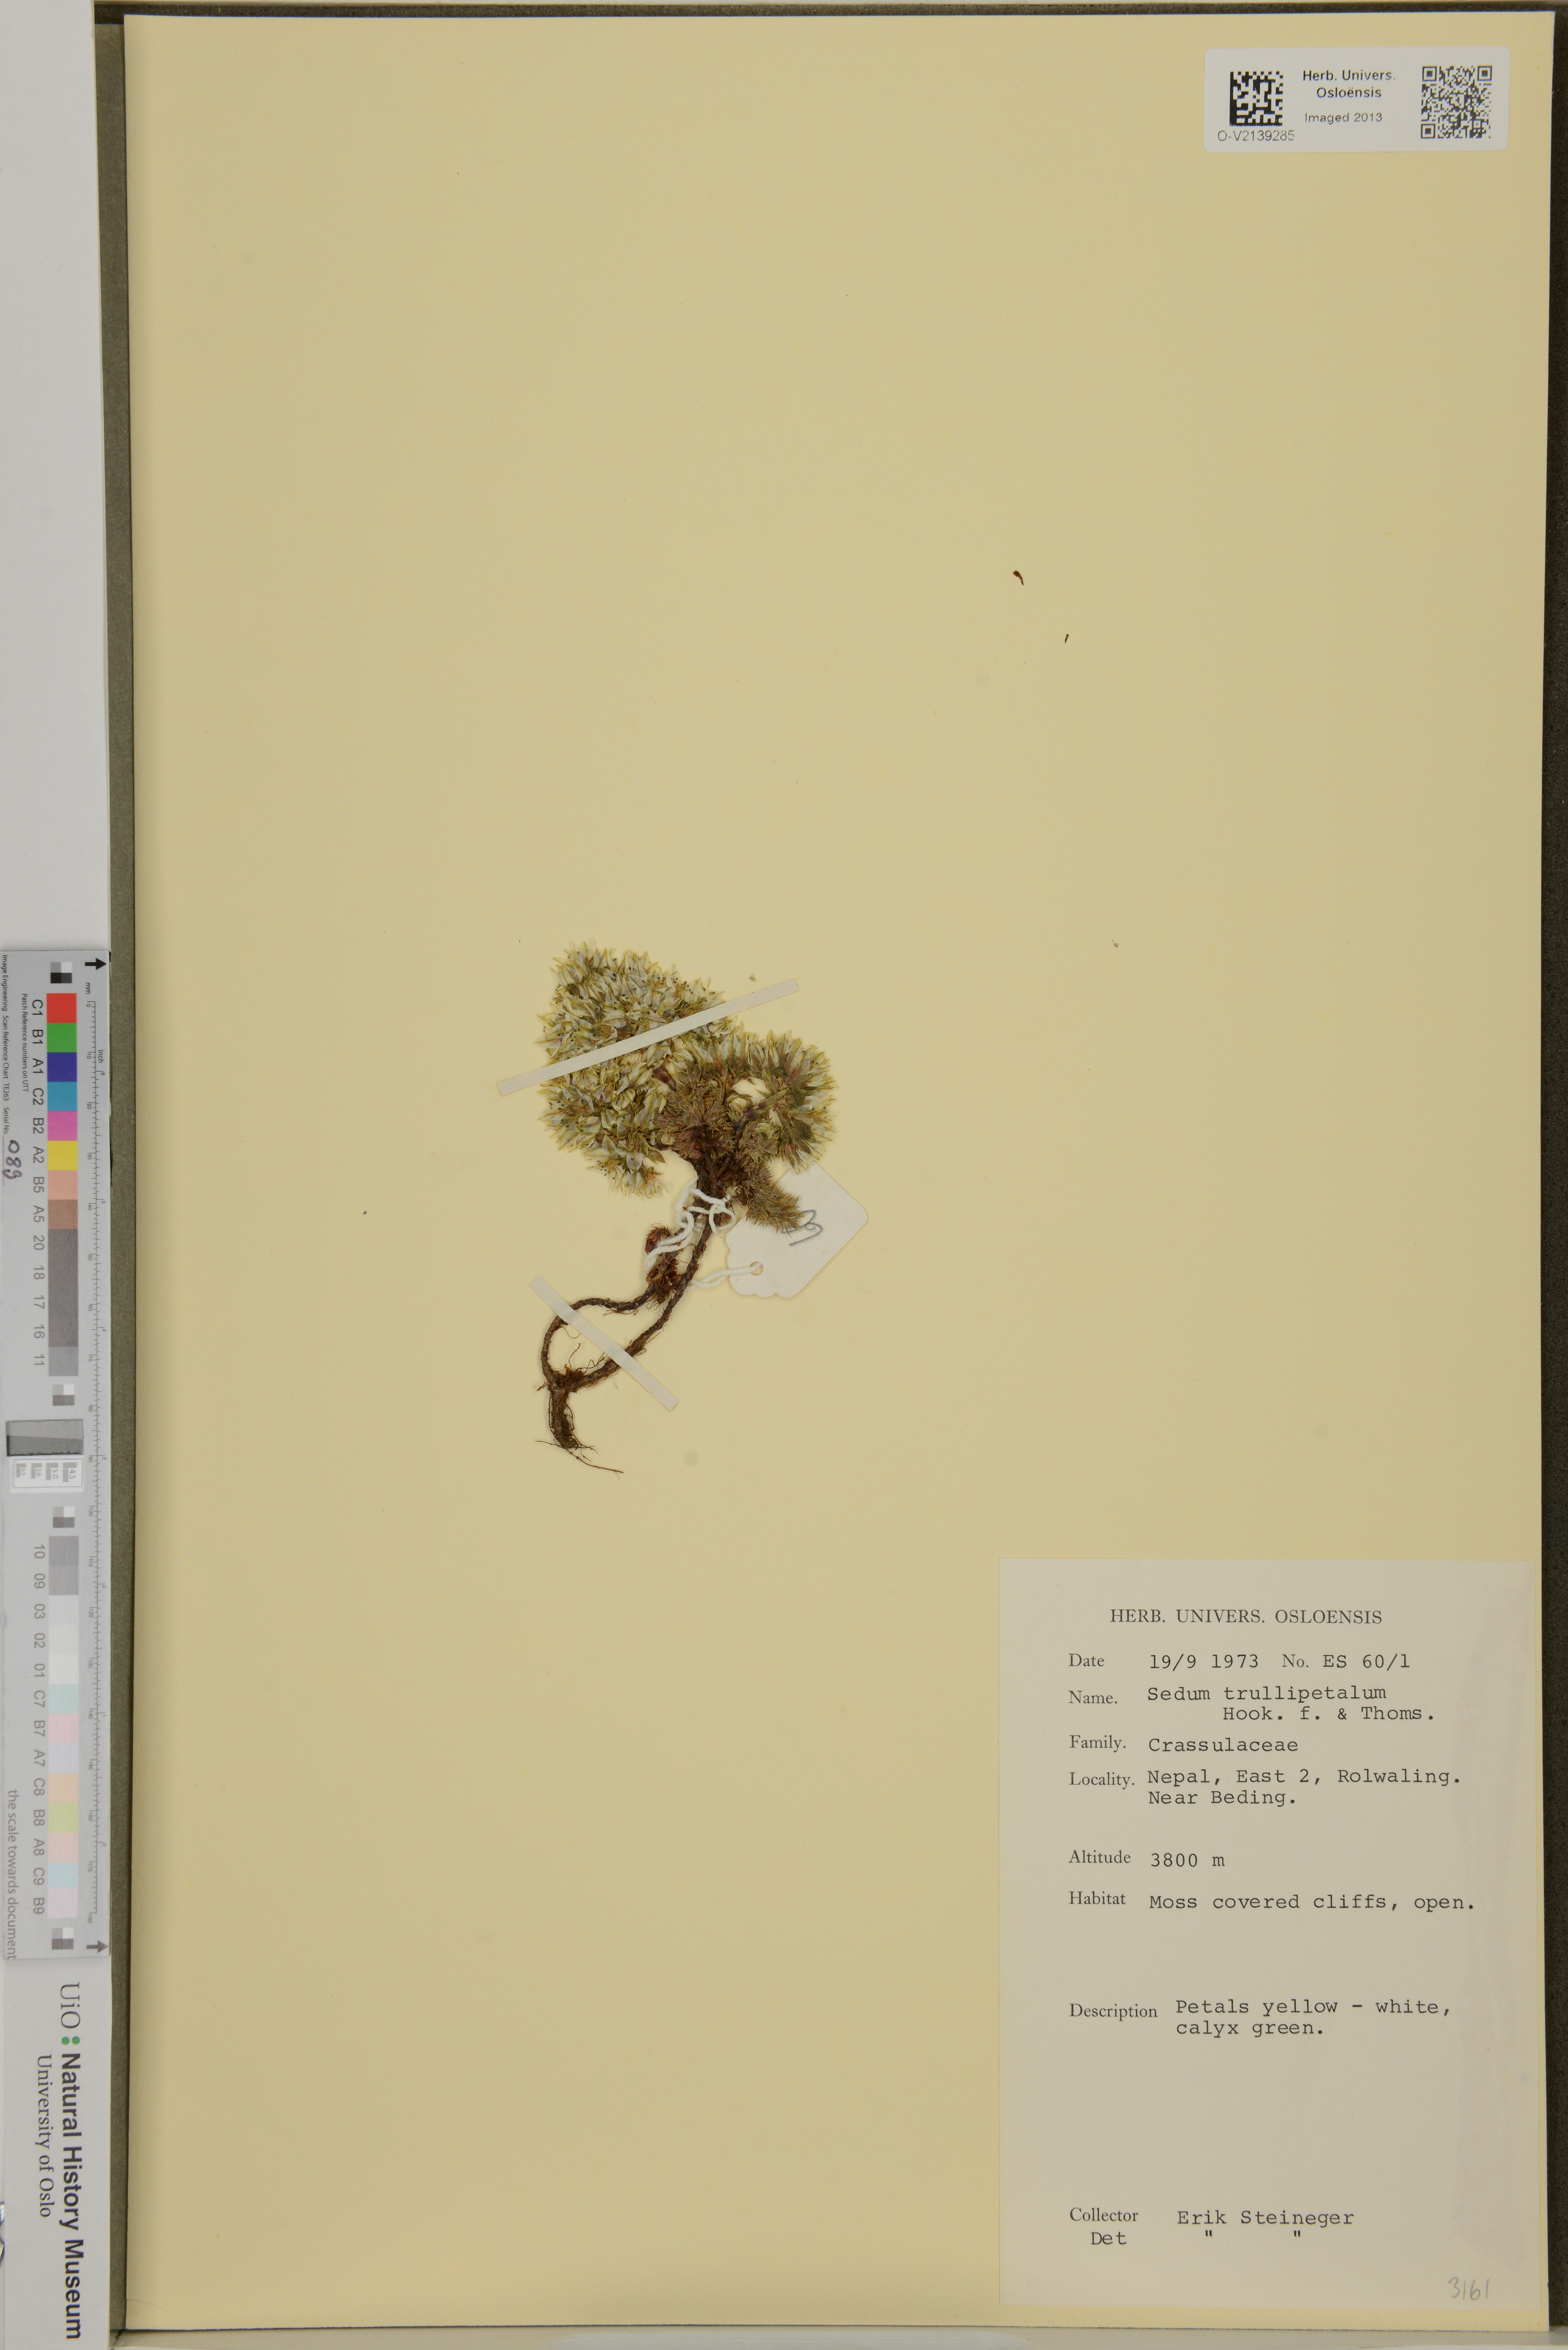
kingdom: Plantae
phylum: Tracheophyta
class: Magnoliopsida
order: Saxifragales
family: Crassulaceae
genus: Sedum
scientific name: Sedum trullipetalum
